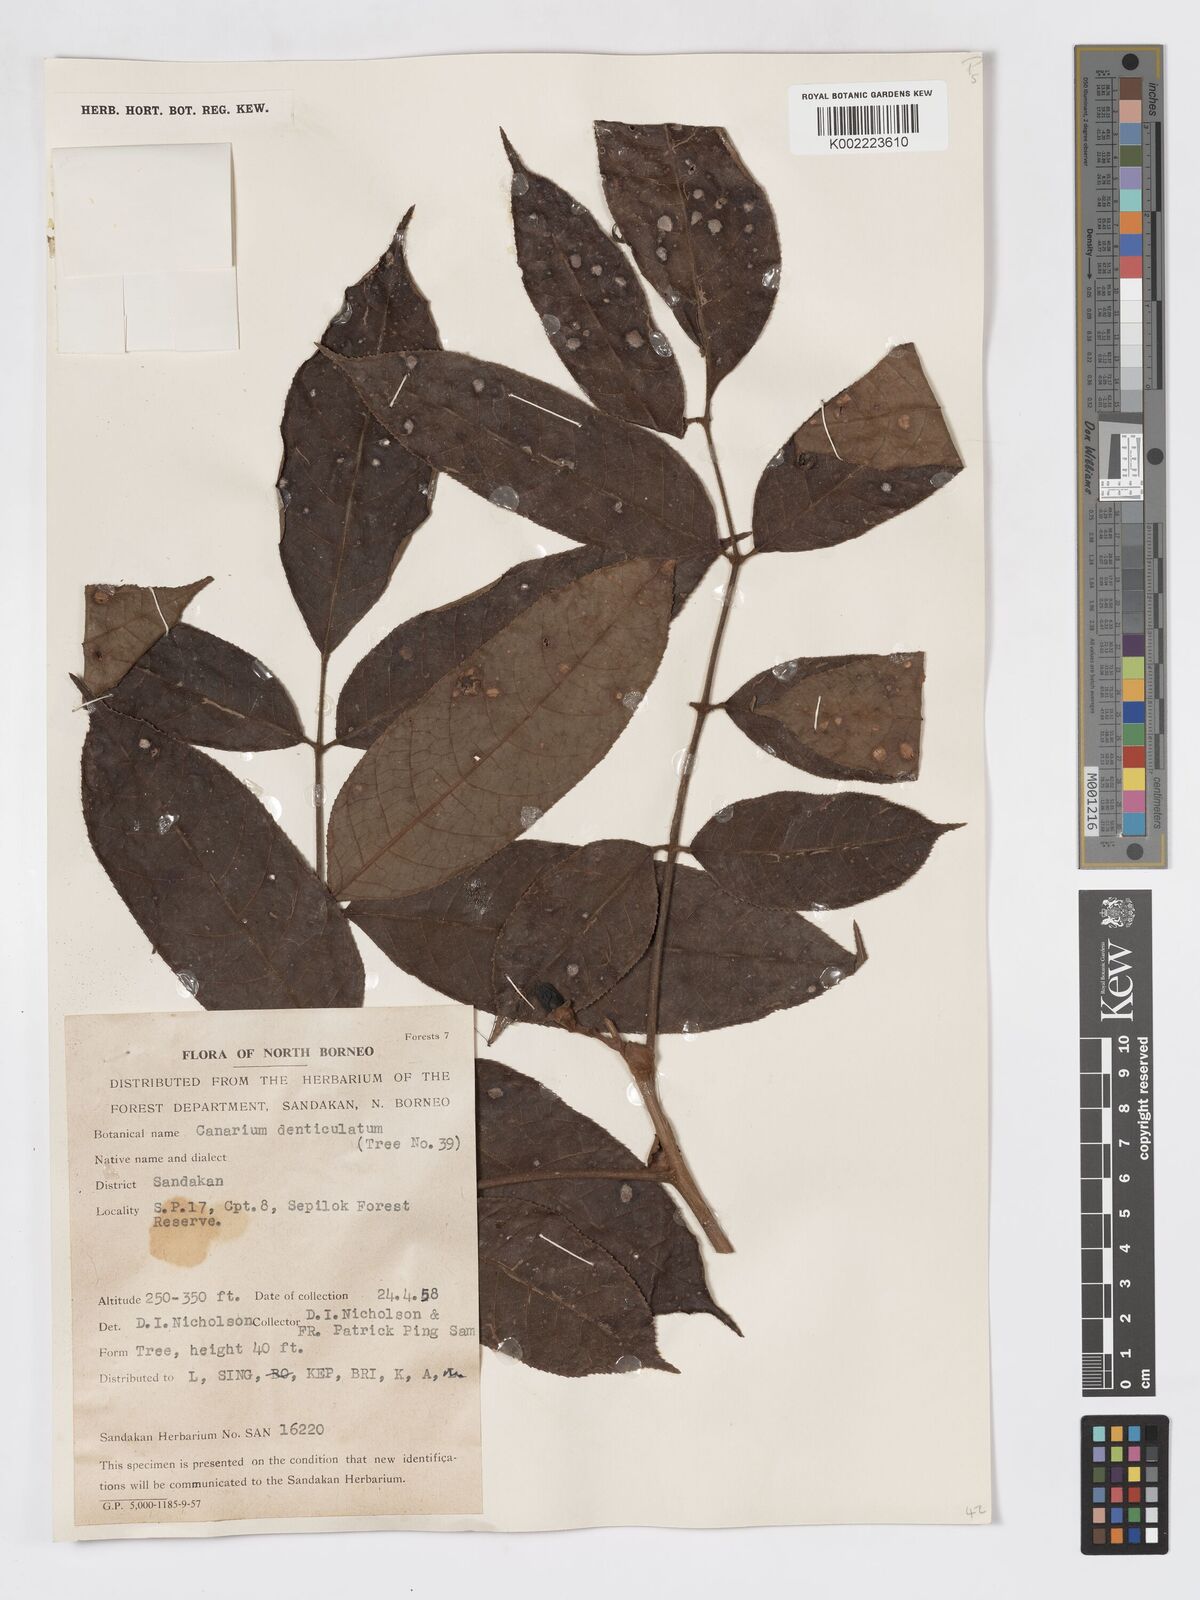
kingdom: Plantae
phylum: Tracheophyta
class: Magnoliopsida
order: Sapindales
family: Burseraceae
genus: Canarium
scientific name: Canarium denticulatum
